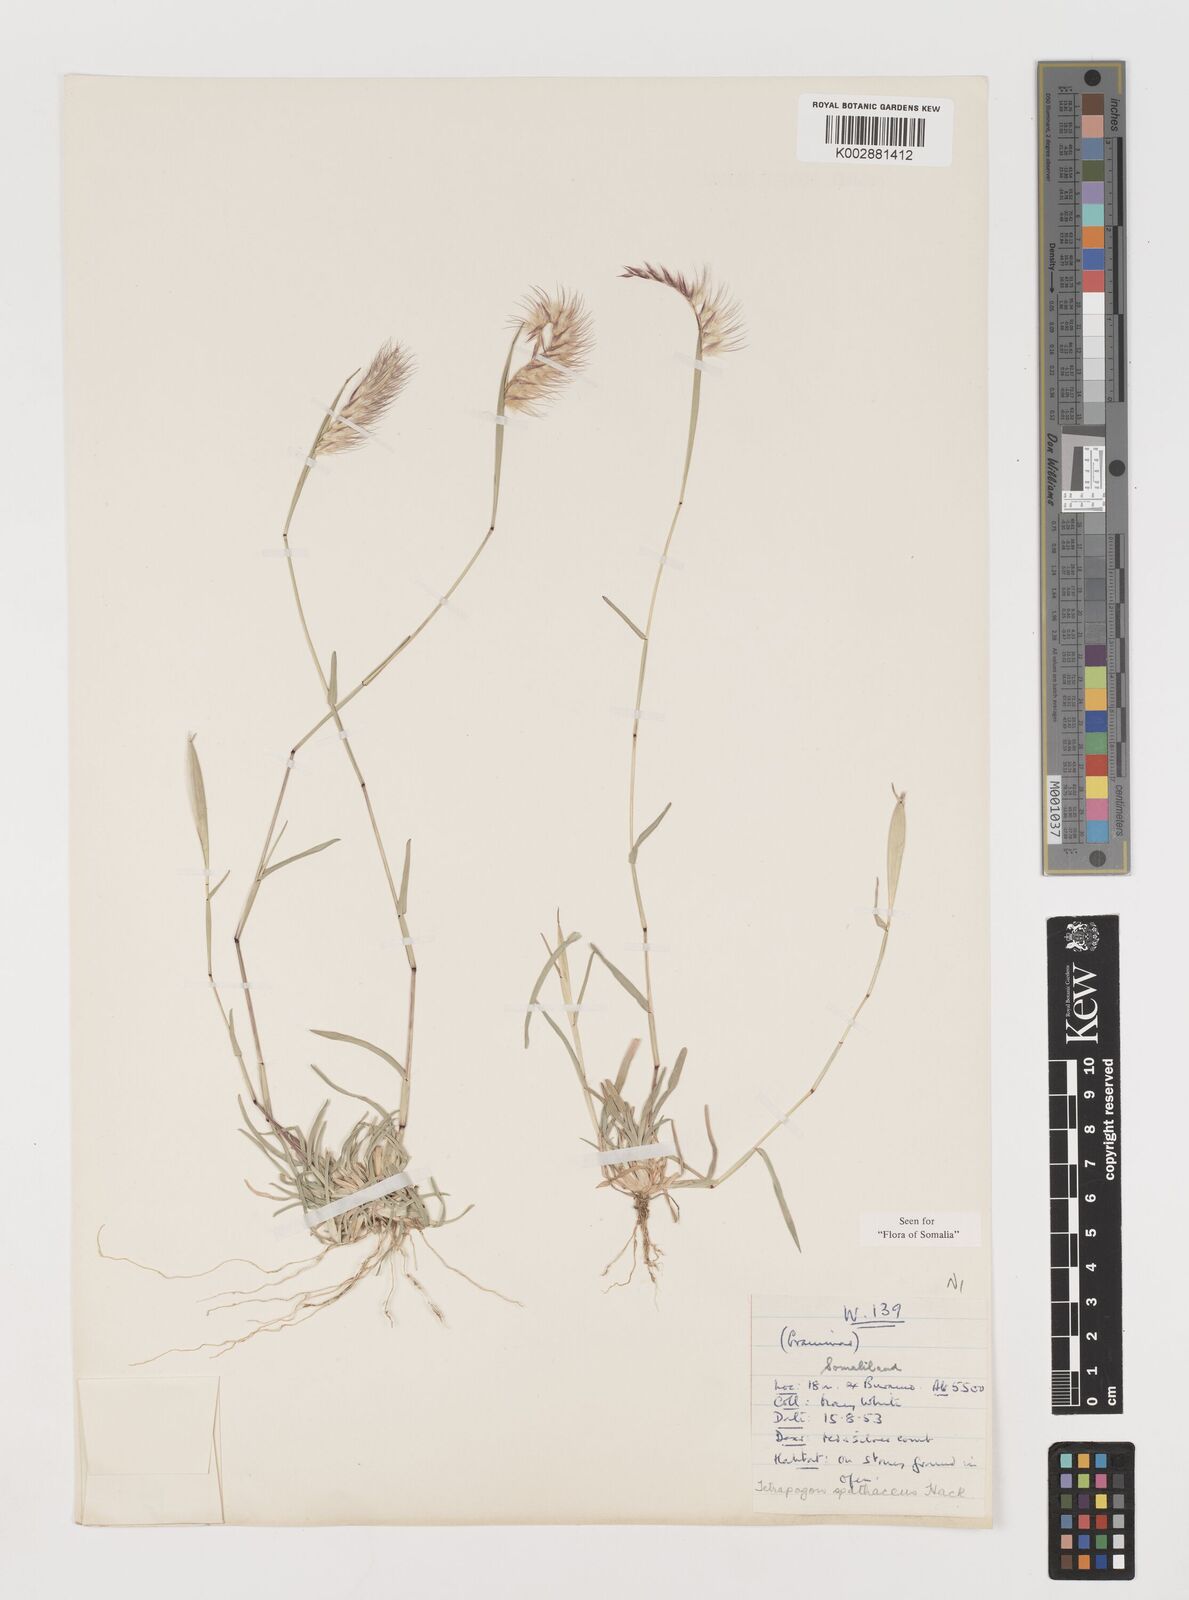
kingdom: Plantae
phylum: Tracheophyta
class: Liliopsida
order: Poales
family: Poaceae
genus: Tetrapogon
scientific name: Tetrapogon cenchriformis
